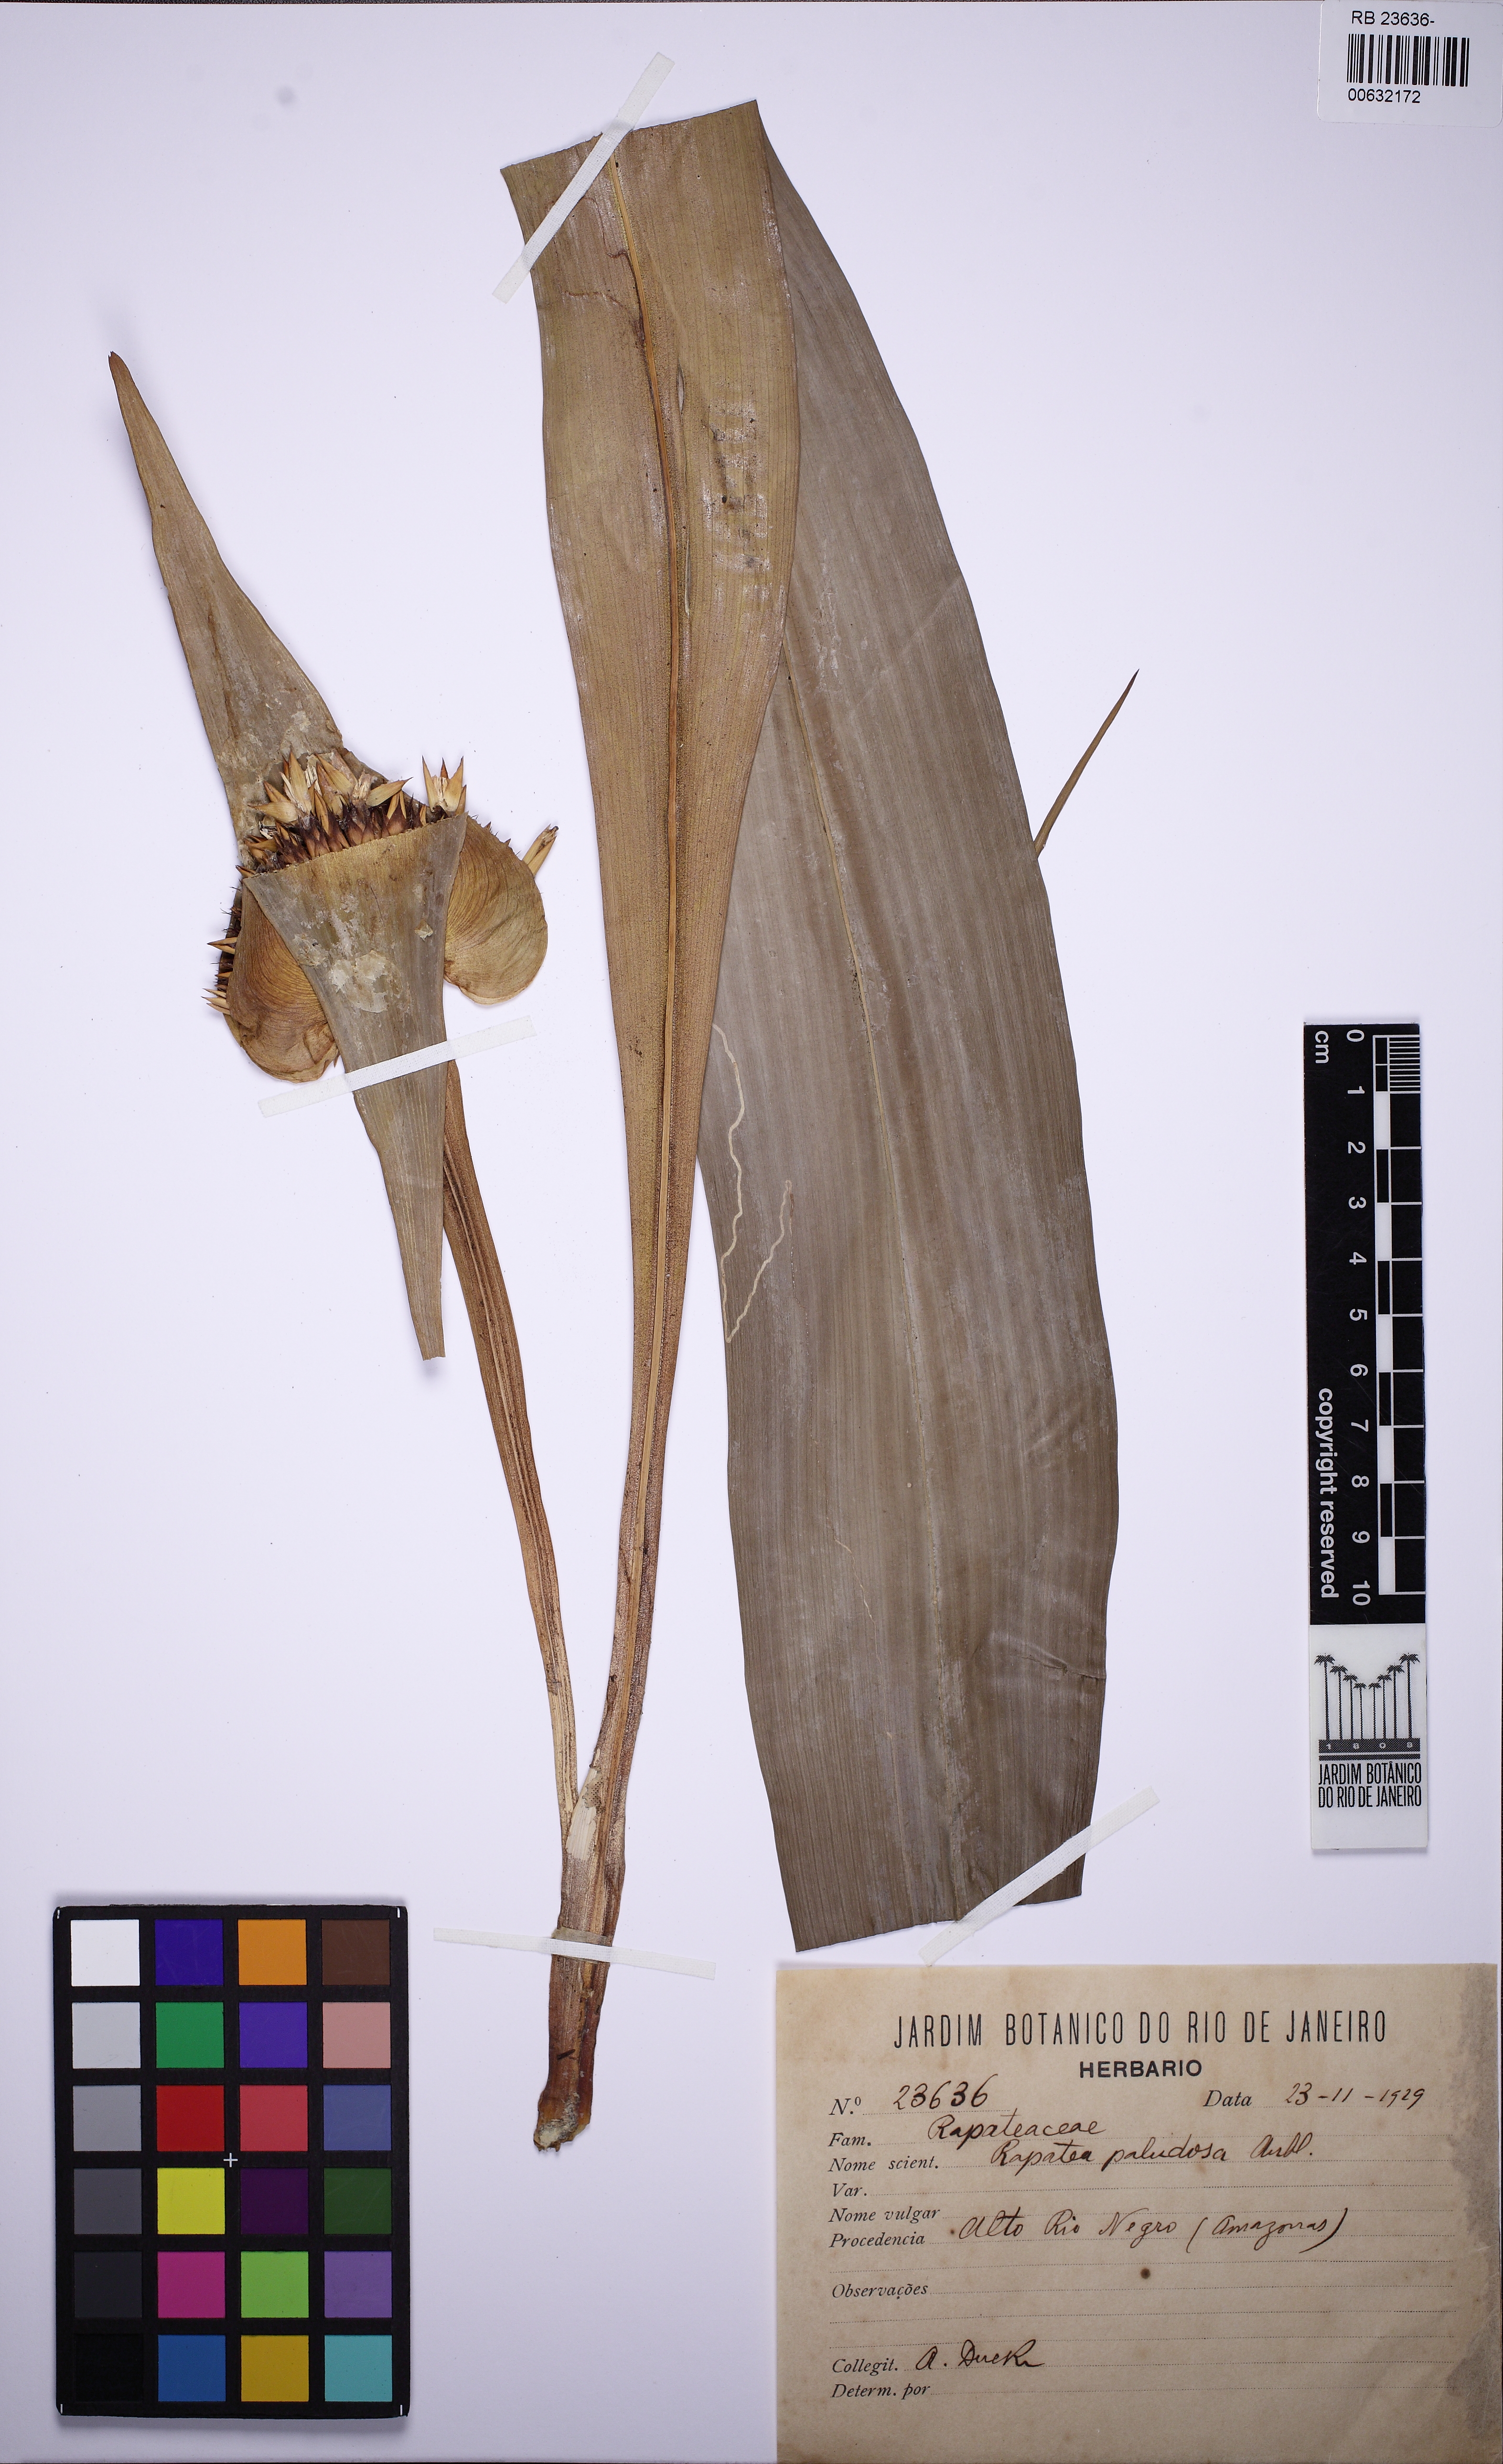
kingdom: Plantae
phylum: Tracheophyta
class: Liliopsida
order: Poales
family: Rapateaceae
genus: Rapatea
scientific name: Rapatea paludosa
